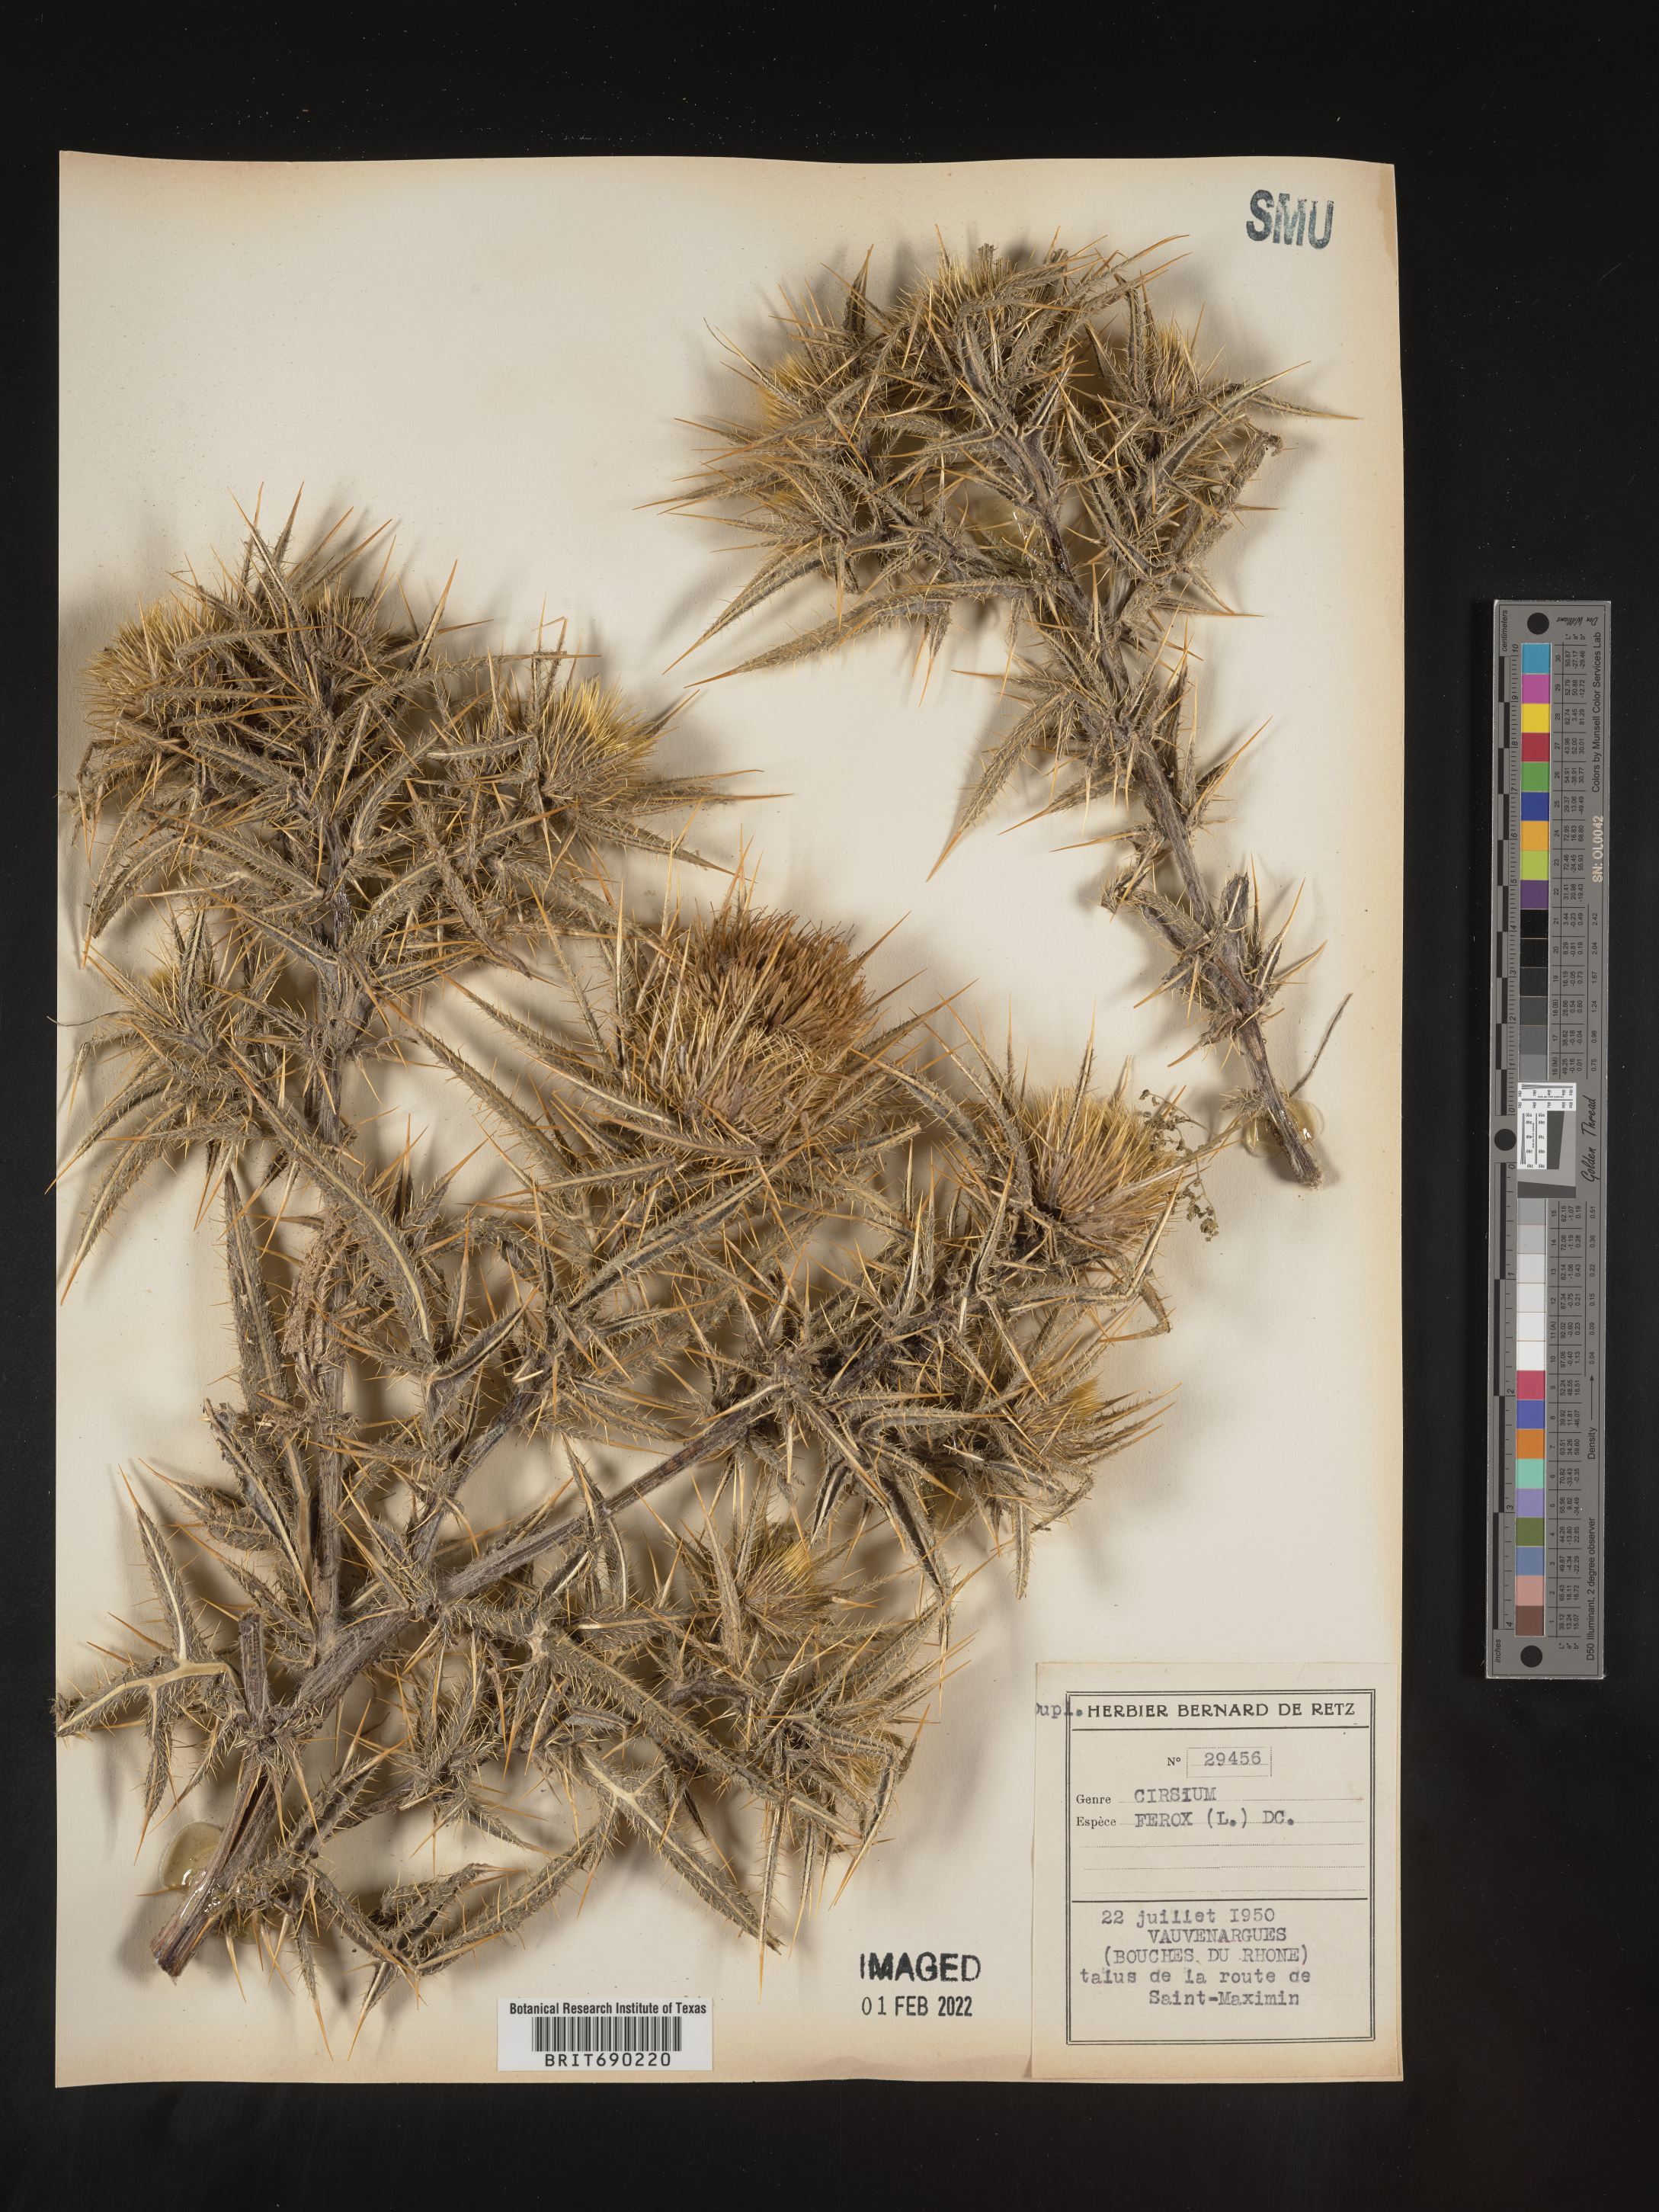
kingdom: Plantae
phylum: Tracheophyta
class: Magnoliopsida
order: Asterales
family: Asteraceae
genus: Cirsium
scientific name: Cirsium
